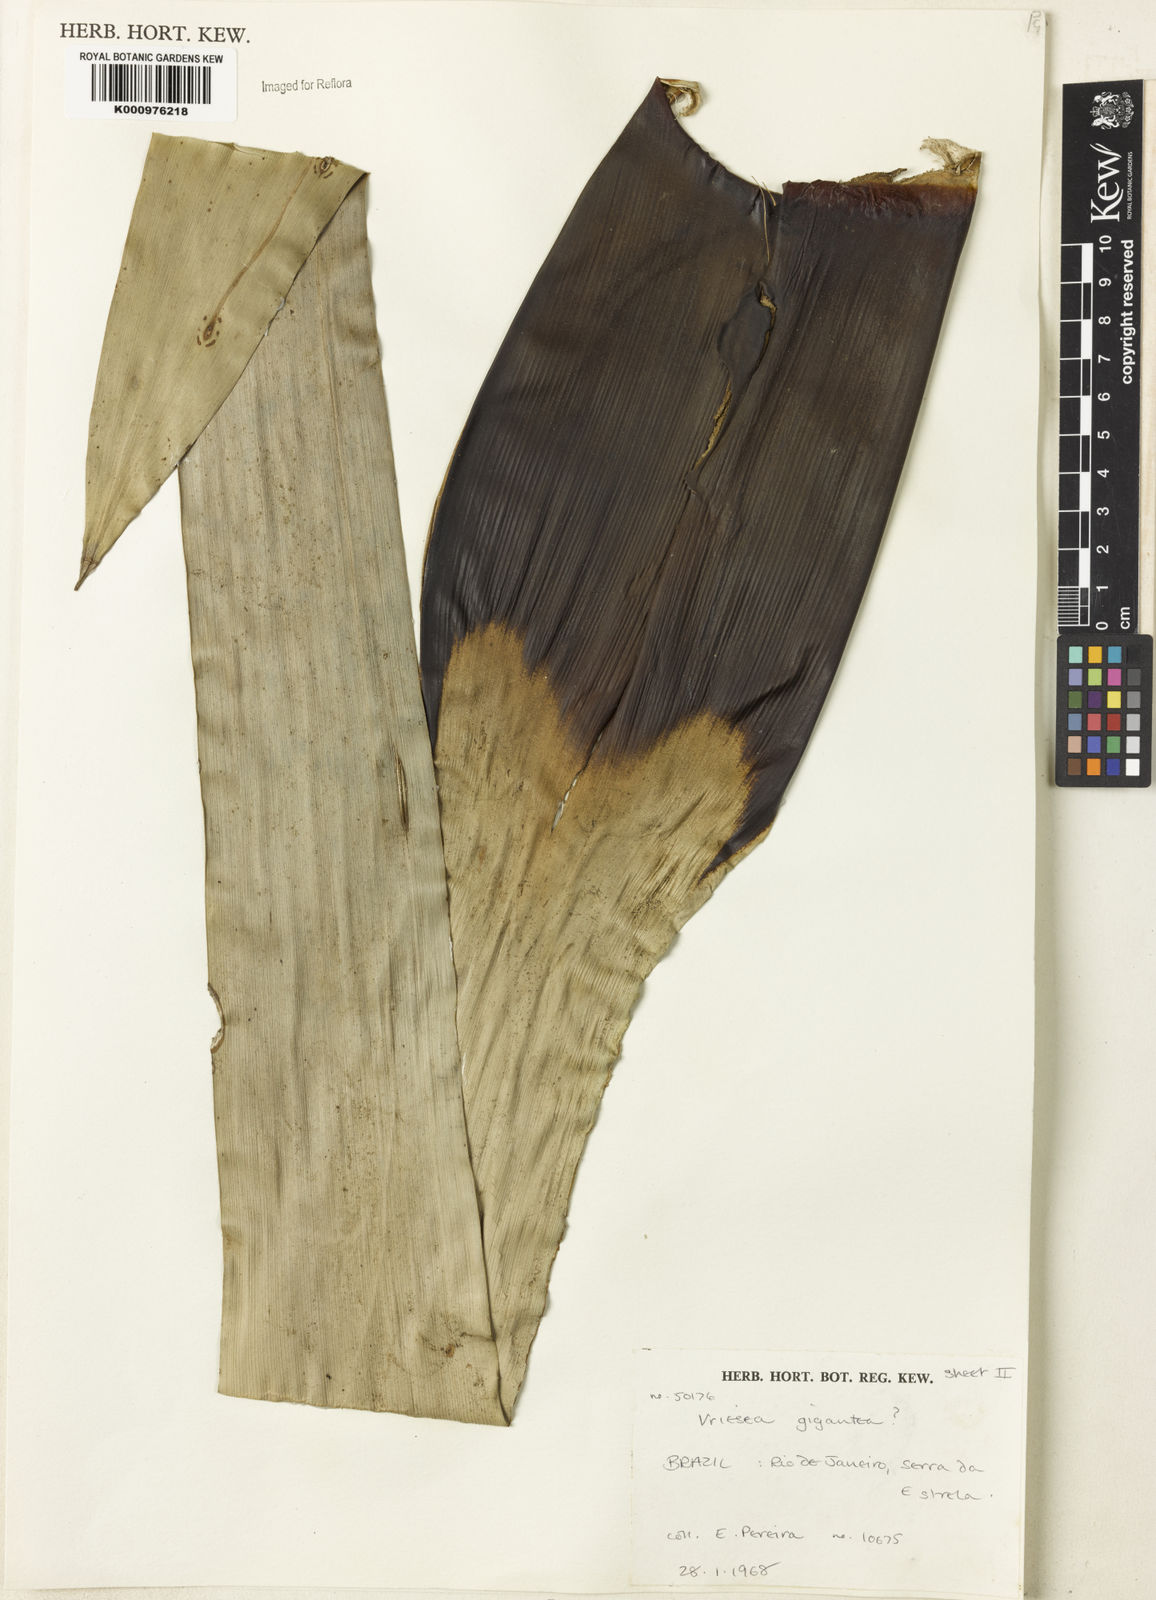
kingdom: Plantae
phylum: Tracheophyta
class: Liliopsida
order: Poales
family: Bromeliaceae
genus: Vriesea
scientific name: Vriesea gigantea
